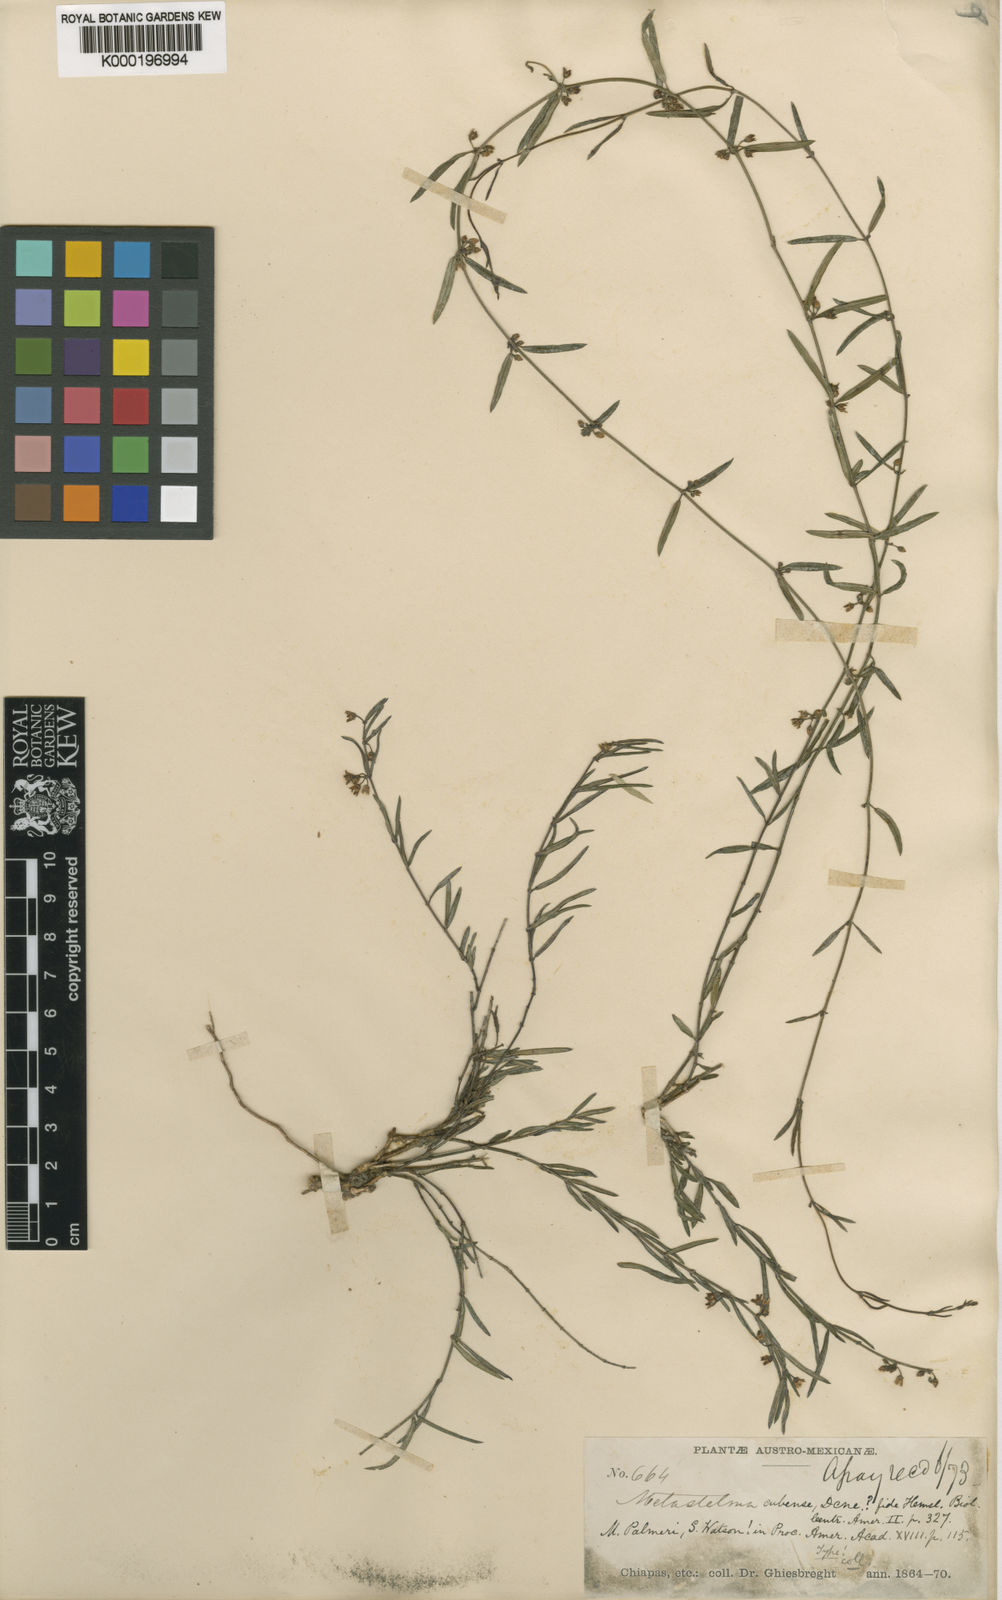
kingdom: Plantae
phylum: Tracheophyta
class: Magnoliopsida
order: Gentianales
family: Apocynaceae
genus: Metastelma
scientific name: Metastelma arizonicum
